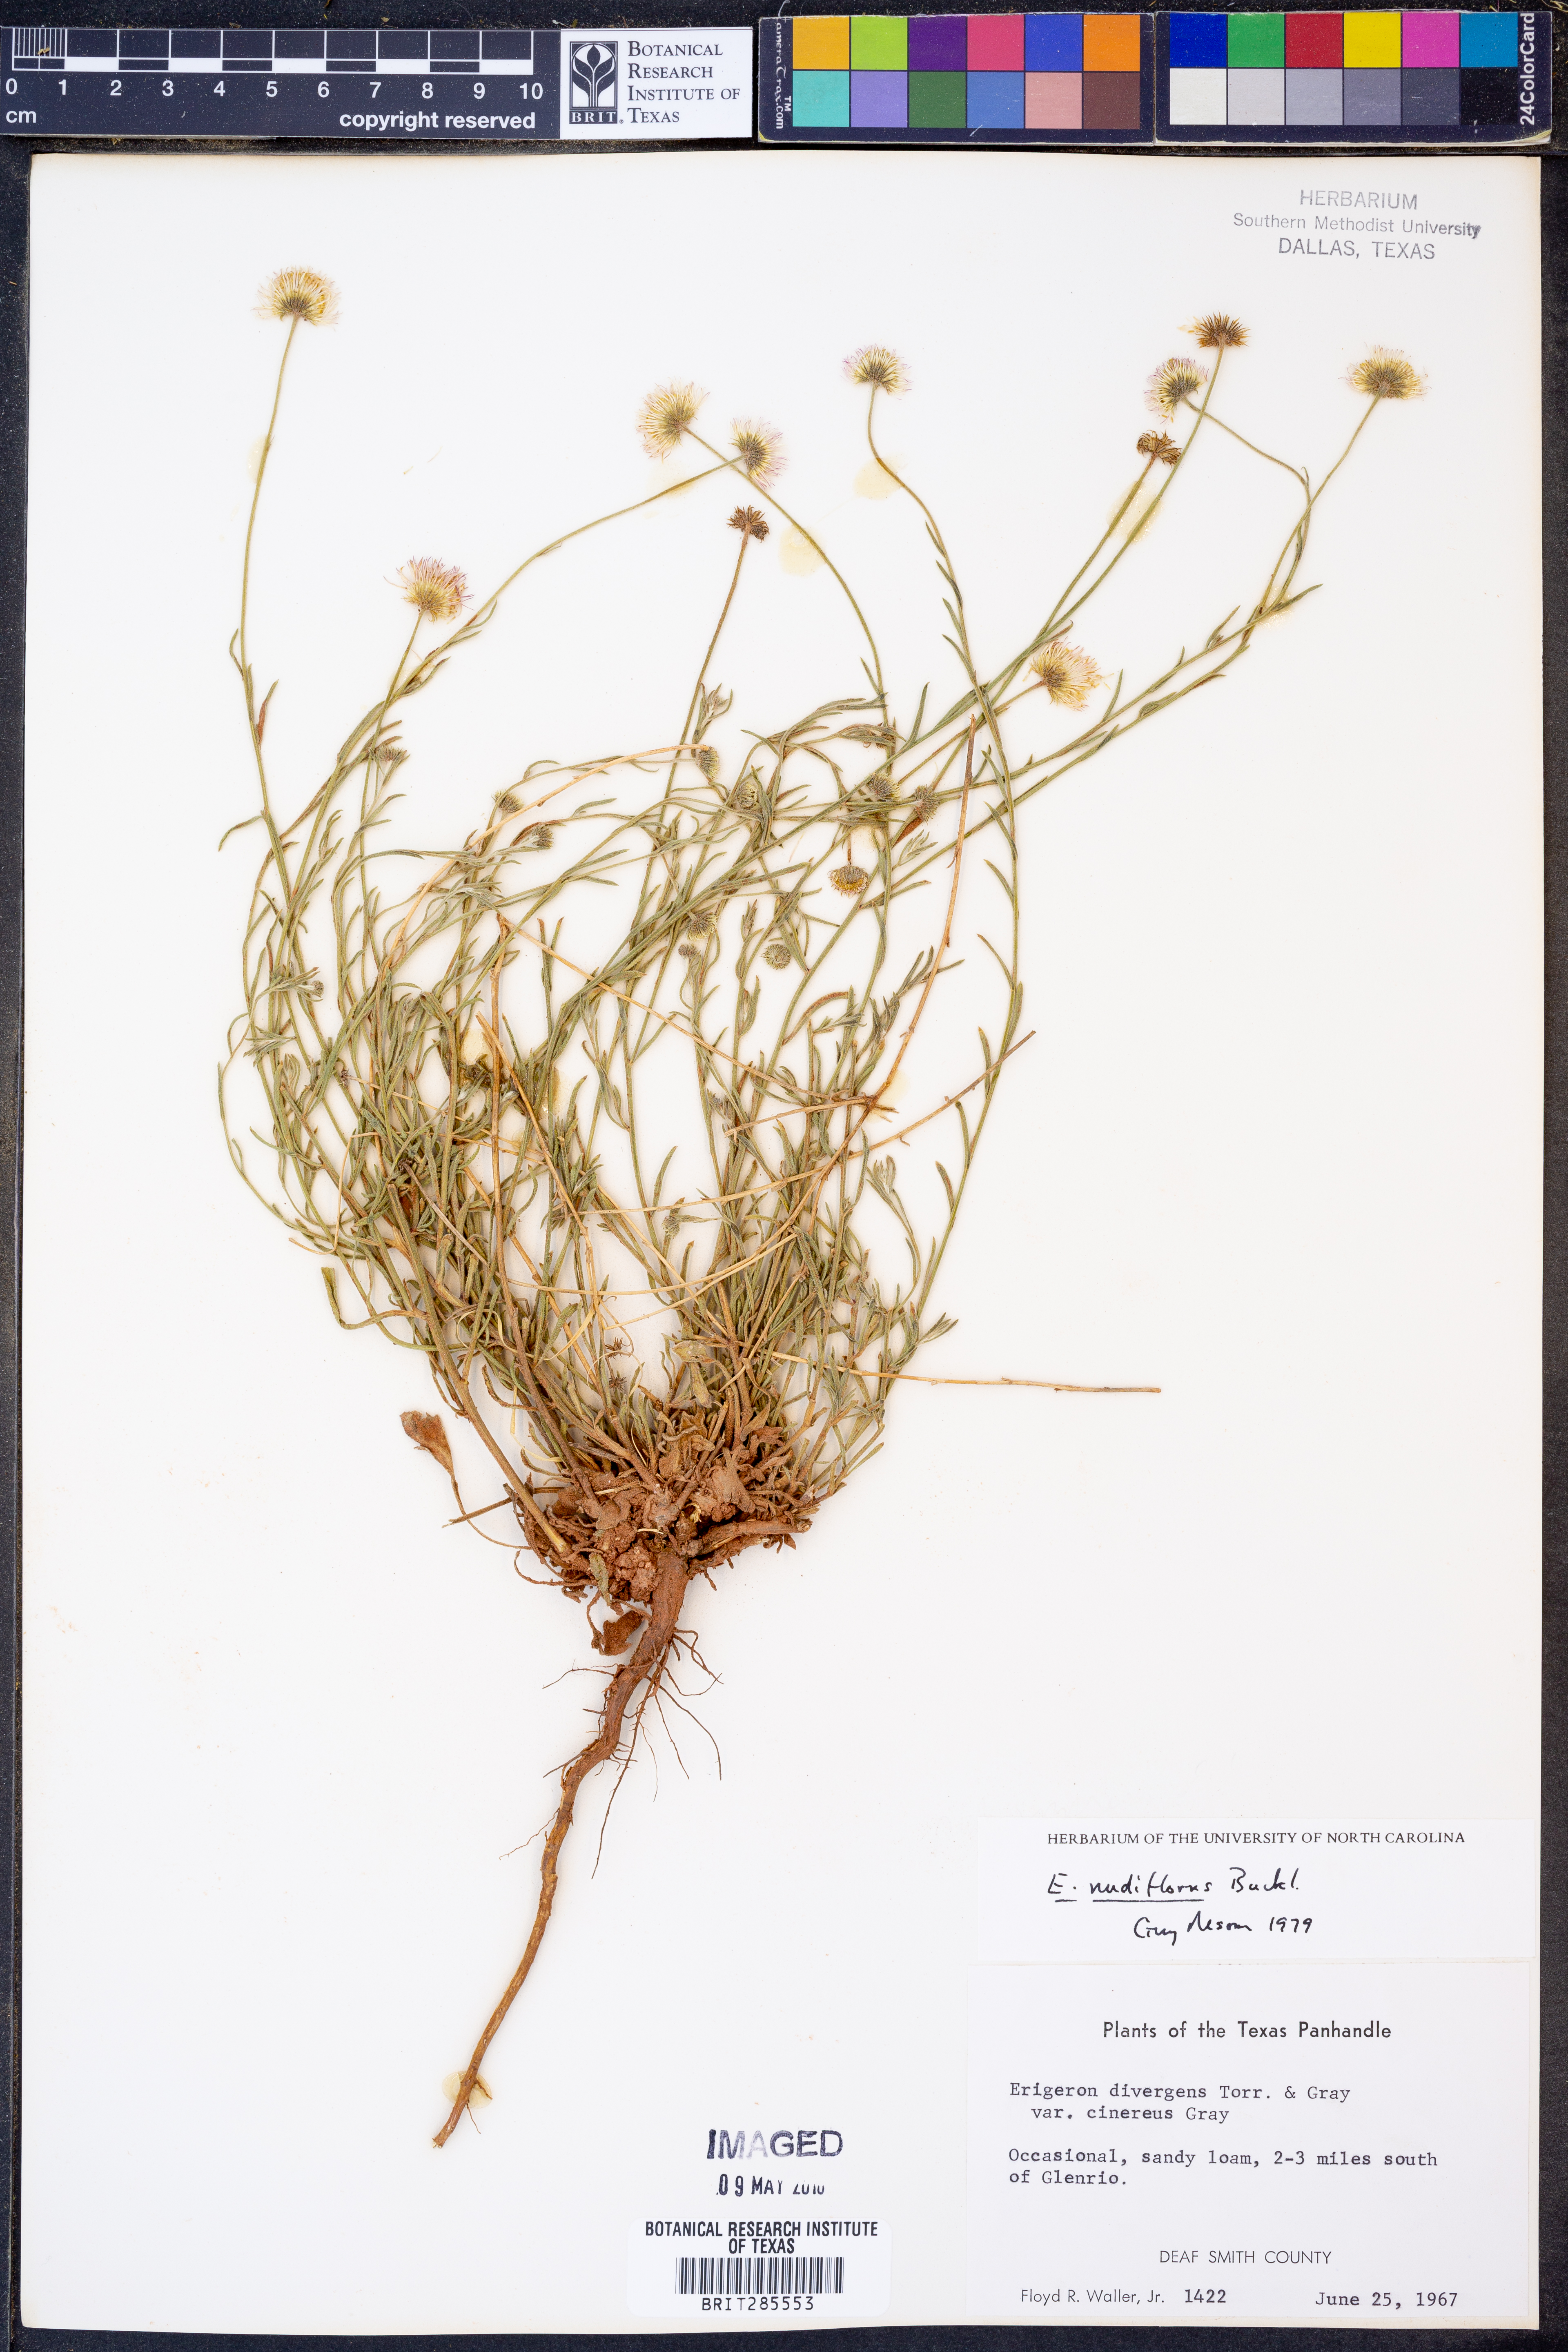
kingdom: Plantae
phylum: Tracheophyta
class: Magnoliopsida
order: Asterales
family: Asteraceae
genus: Erigeron
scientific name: Erigeron flagellaris
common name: Running fleabane
